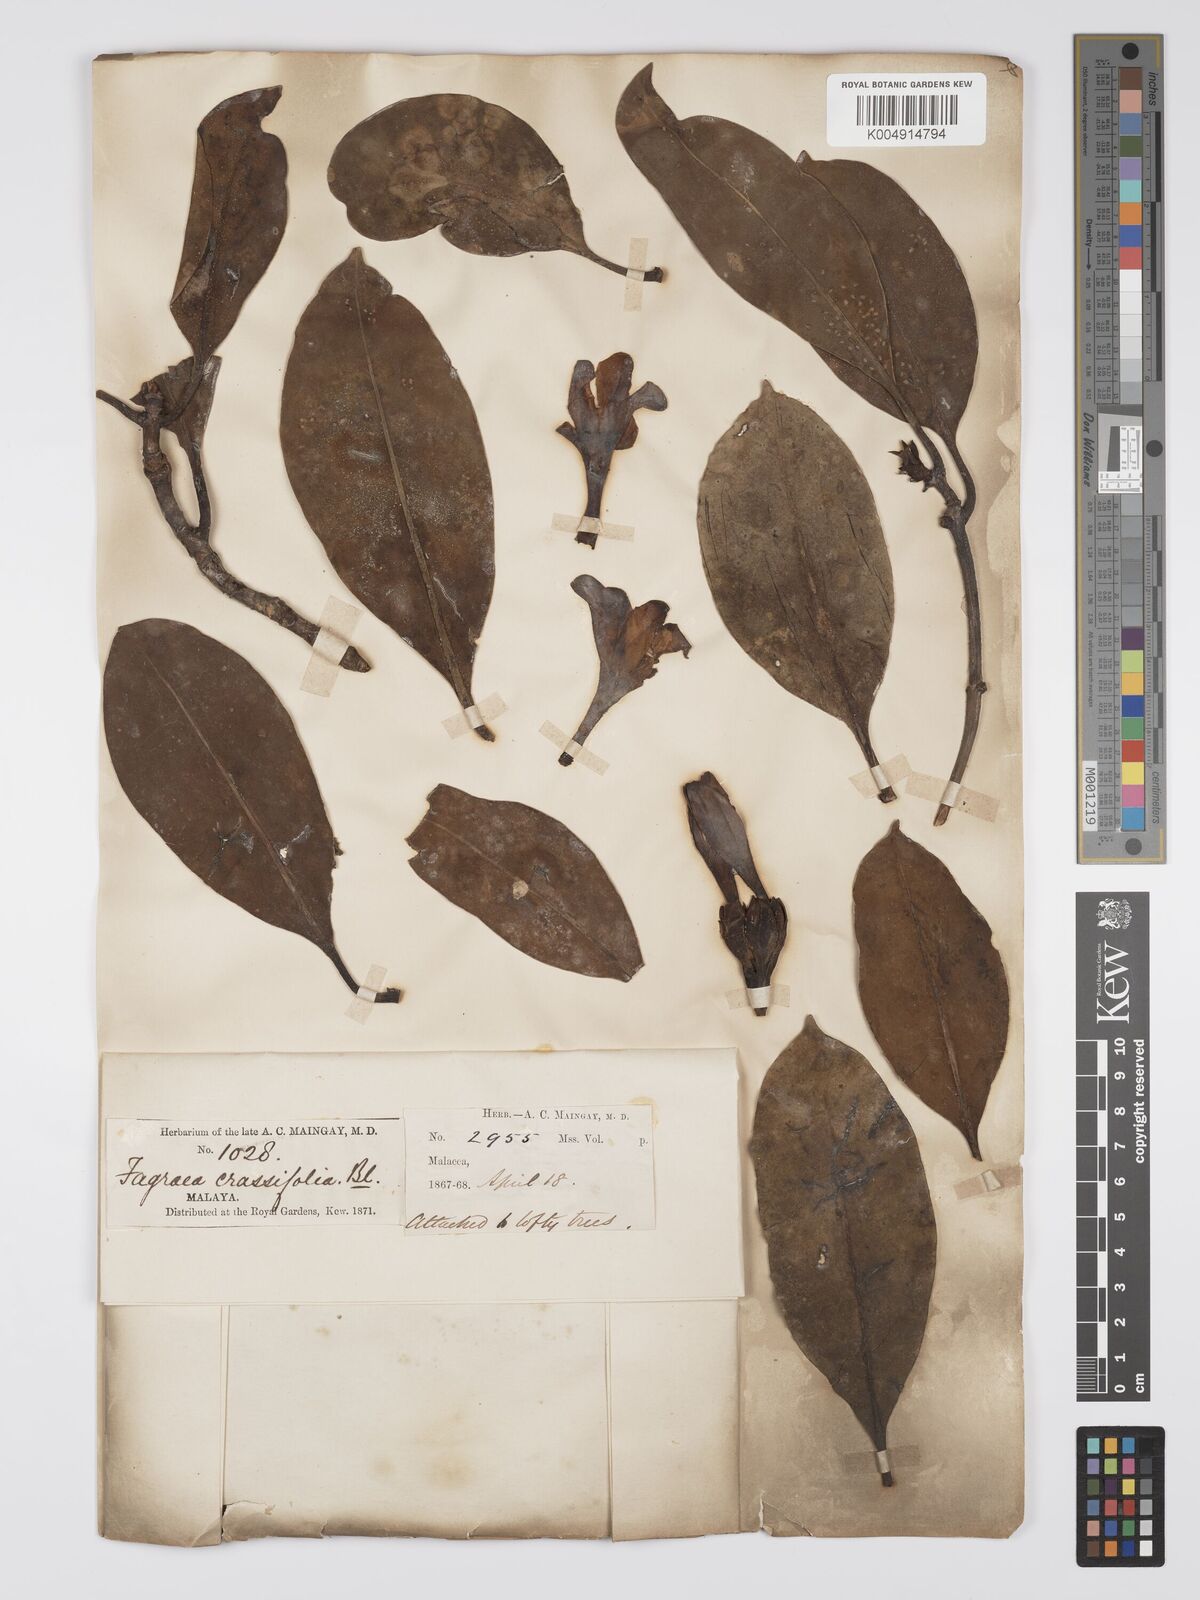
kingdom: Plantae
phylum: Tracheophyta
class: Magnoliopsida
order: Gentianales
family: Gentianaceae
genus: Fagraea
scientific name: Fagraea oblonga
